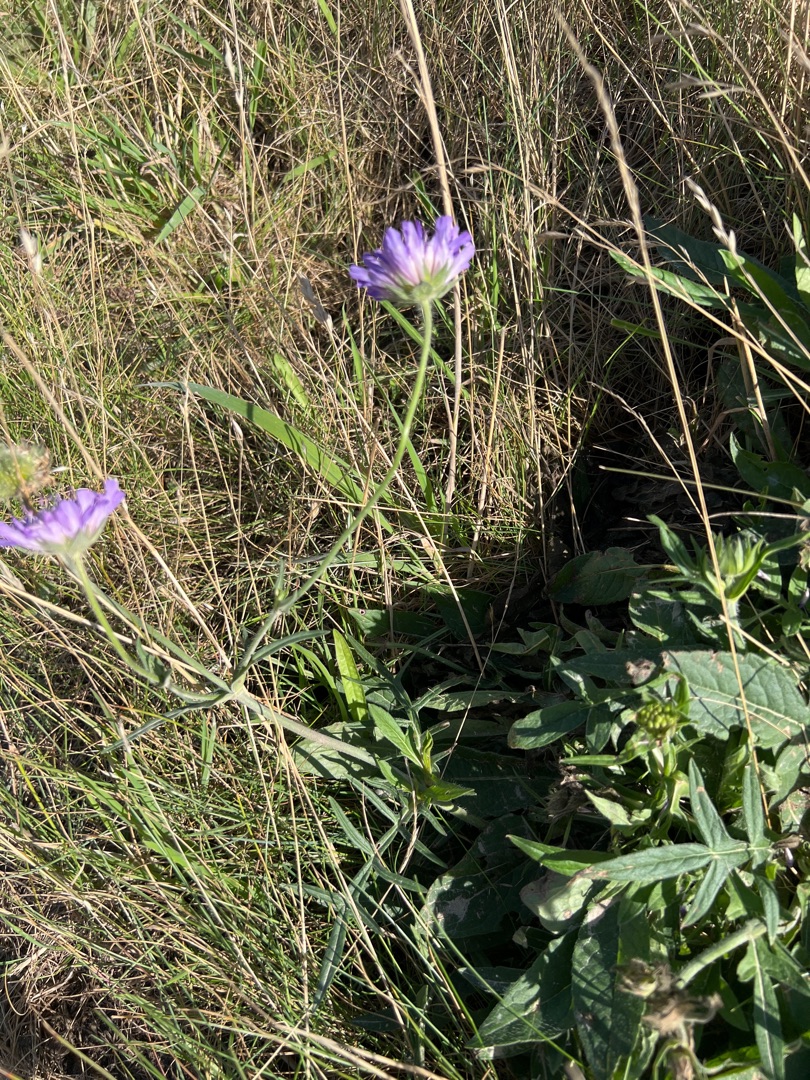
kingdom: Plantae
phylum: Tracheophyta
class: Magnoliopsida
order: Dipsacales
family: Caprifoliaceae
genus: Knautia
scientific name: Knautia arvensis
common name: Blåhat
